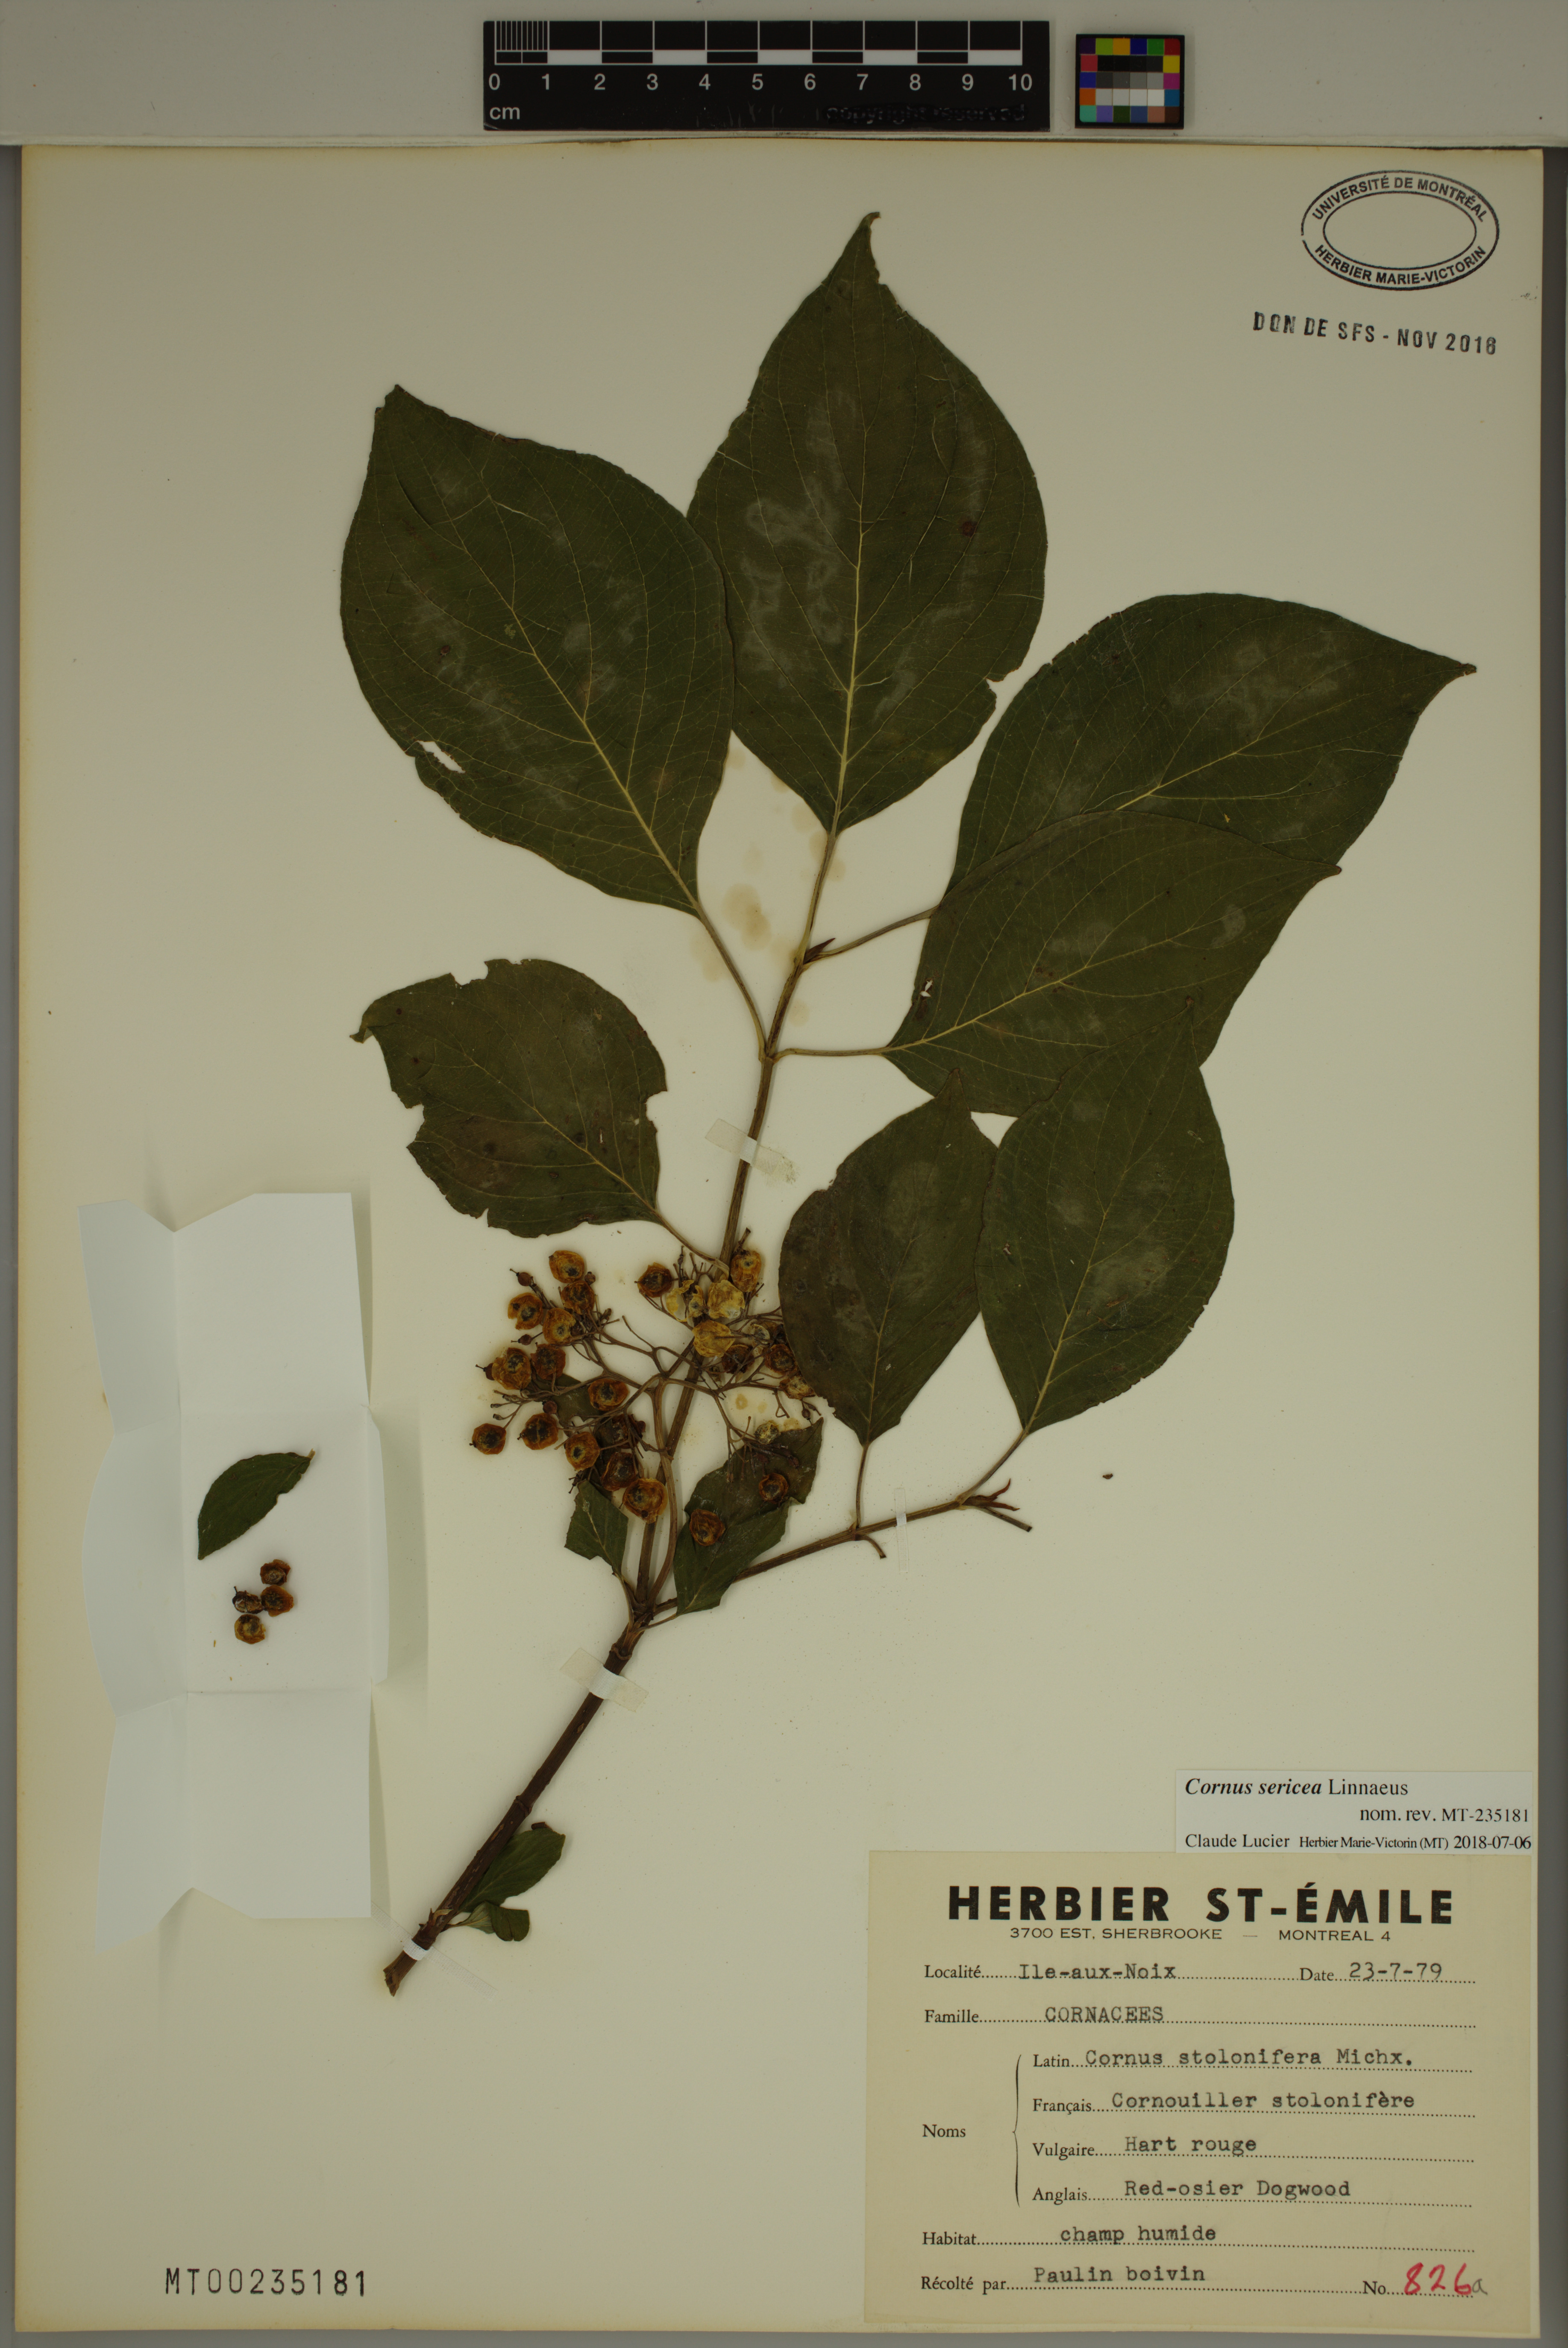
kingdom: Plantae
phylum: Tracheophyta
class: Magnoliopsida
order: Cornales
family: Cornaceae
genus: Cornus
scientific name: Cornus sericea
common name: Red-osier dogwood
